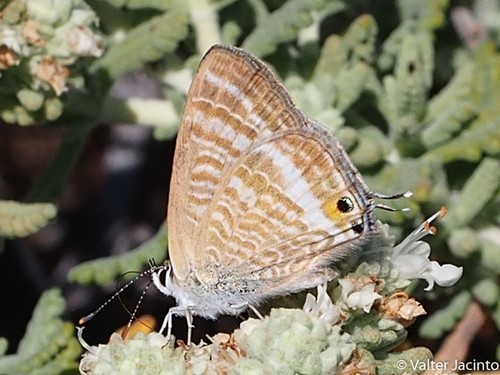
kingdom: Animalia
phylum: Arthropoda
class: Insecta
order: Lepidoptera
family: Lycaenidae
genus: Lampides
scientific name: Lampides boeticus
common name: Long-tailed blue
